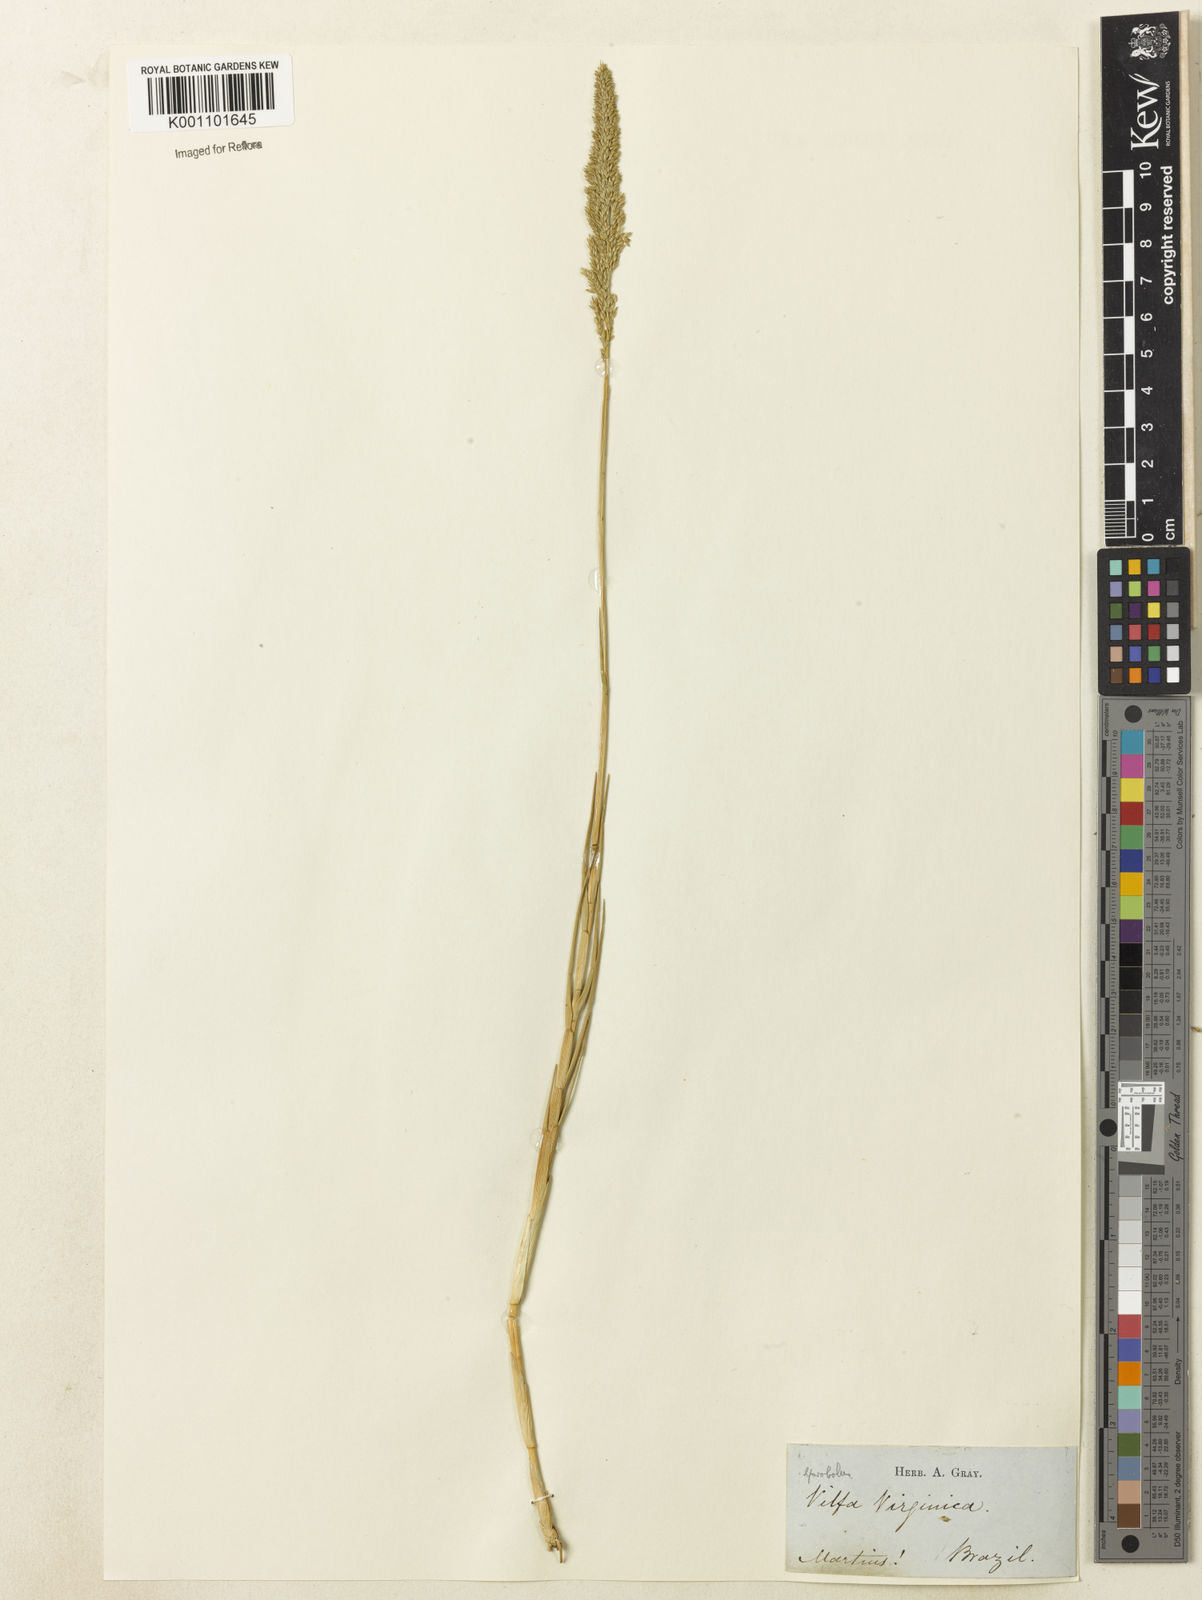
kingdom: Plantae
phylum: Tracheophyta
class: Liliopsida
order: Poales
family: Poaceae
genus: Sporobolus
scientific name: Sporobolus virginicus
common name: Beach dropseed
